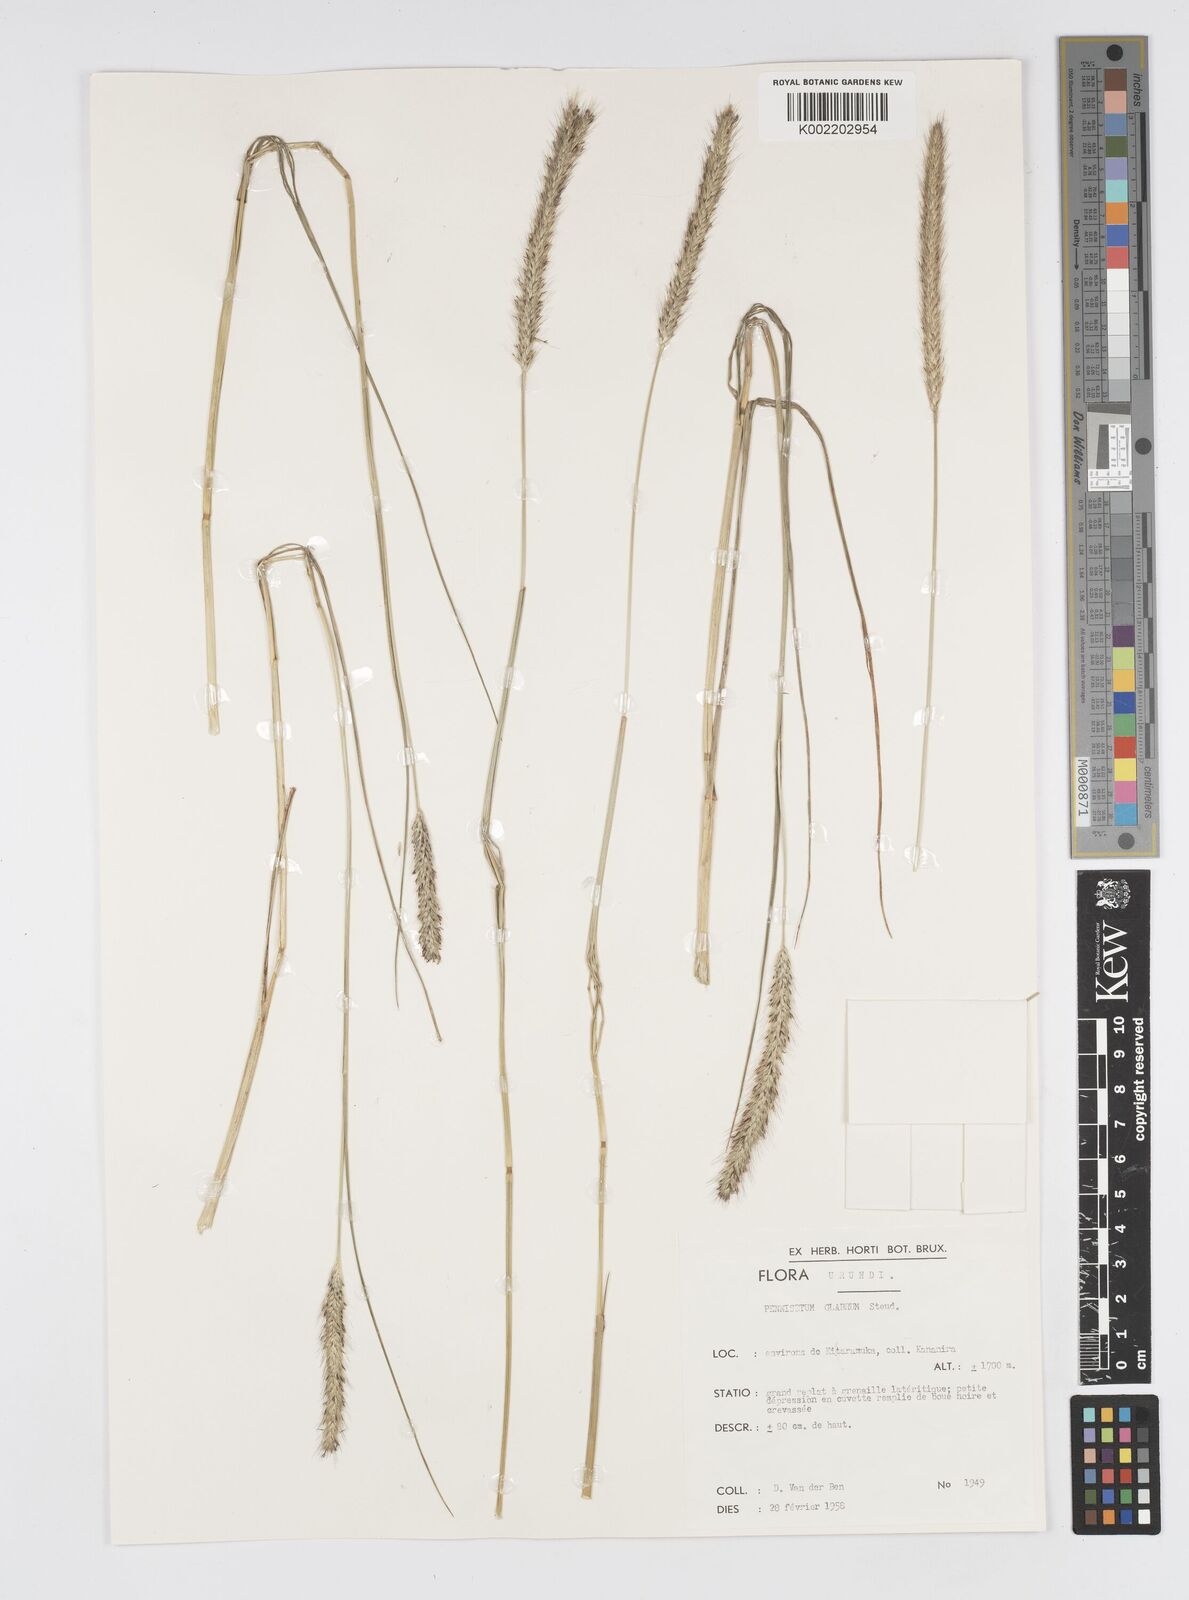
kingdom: Plantae
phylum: Tracheophyta
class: Liliopsida
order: Poales
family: Poaceae
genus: Cenchrus
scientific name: Cenchrus geniculatus
